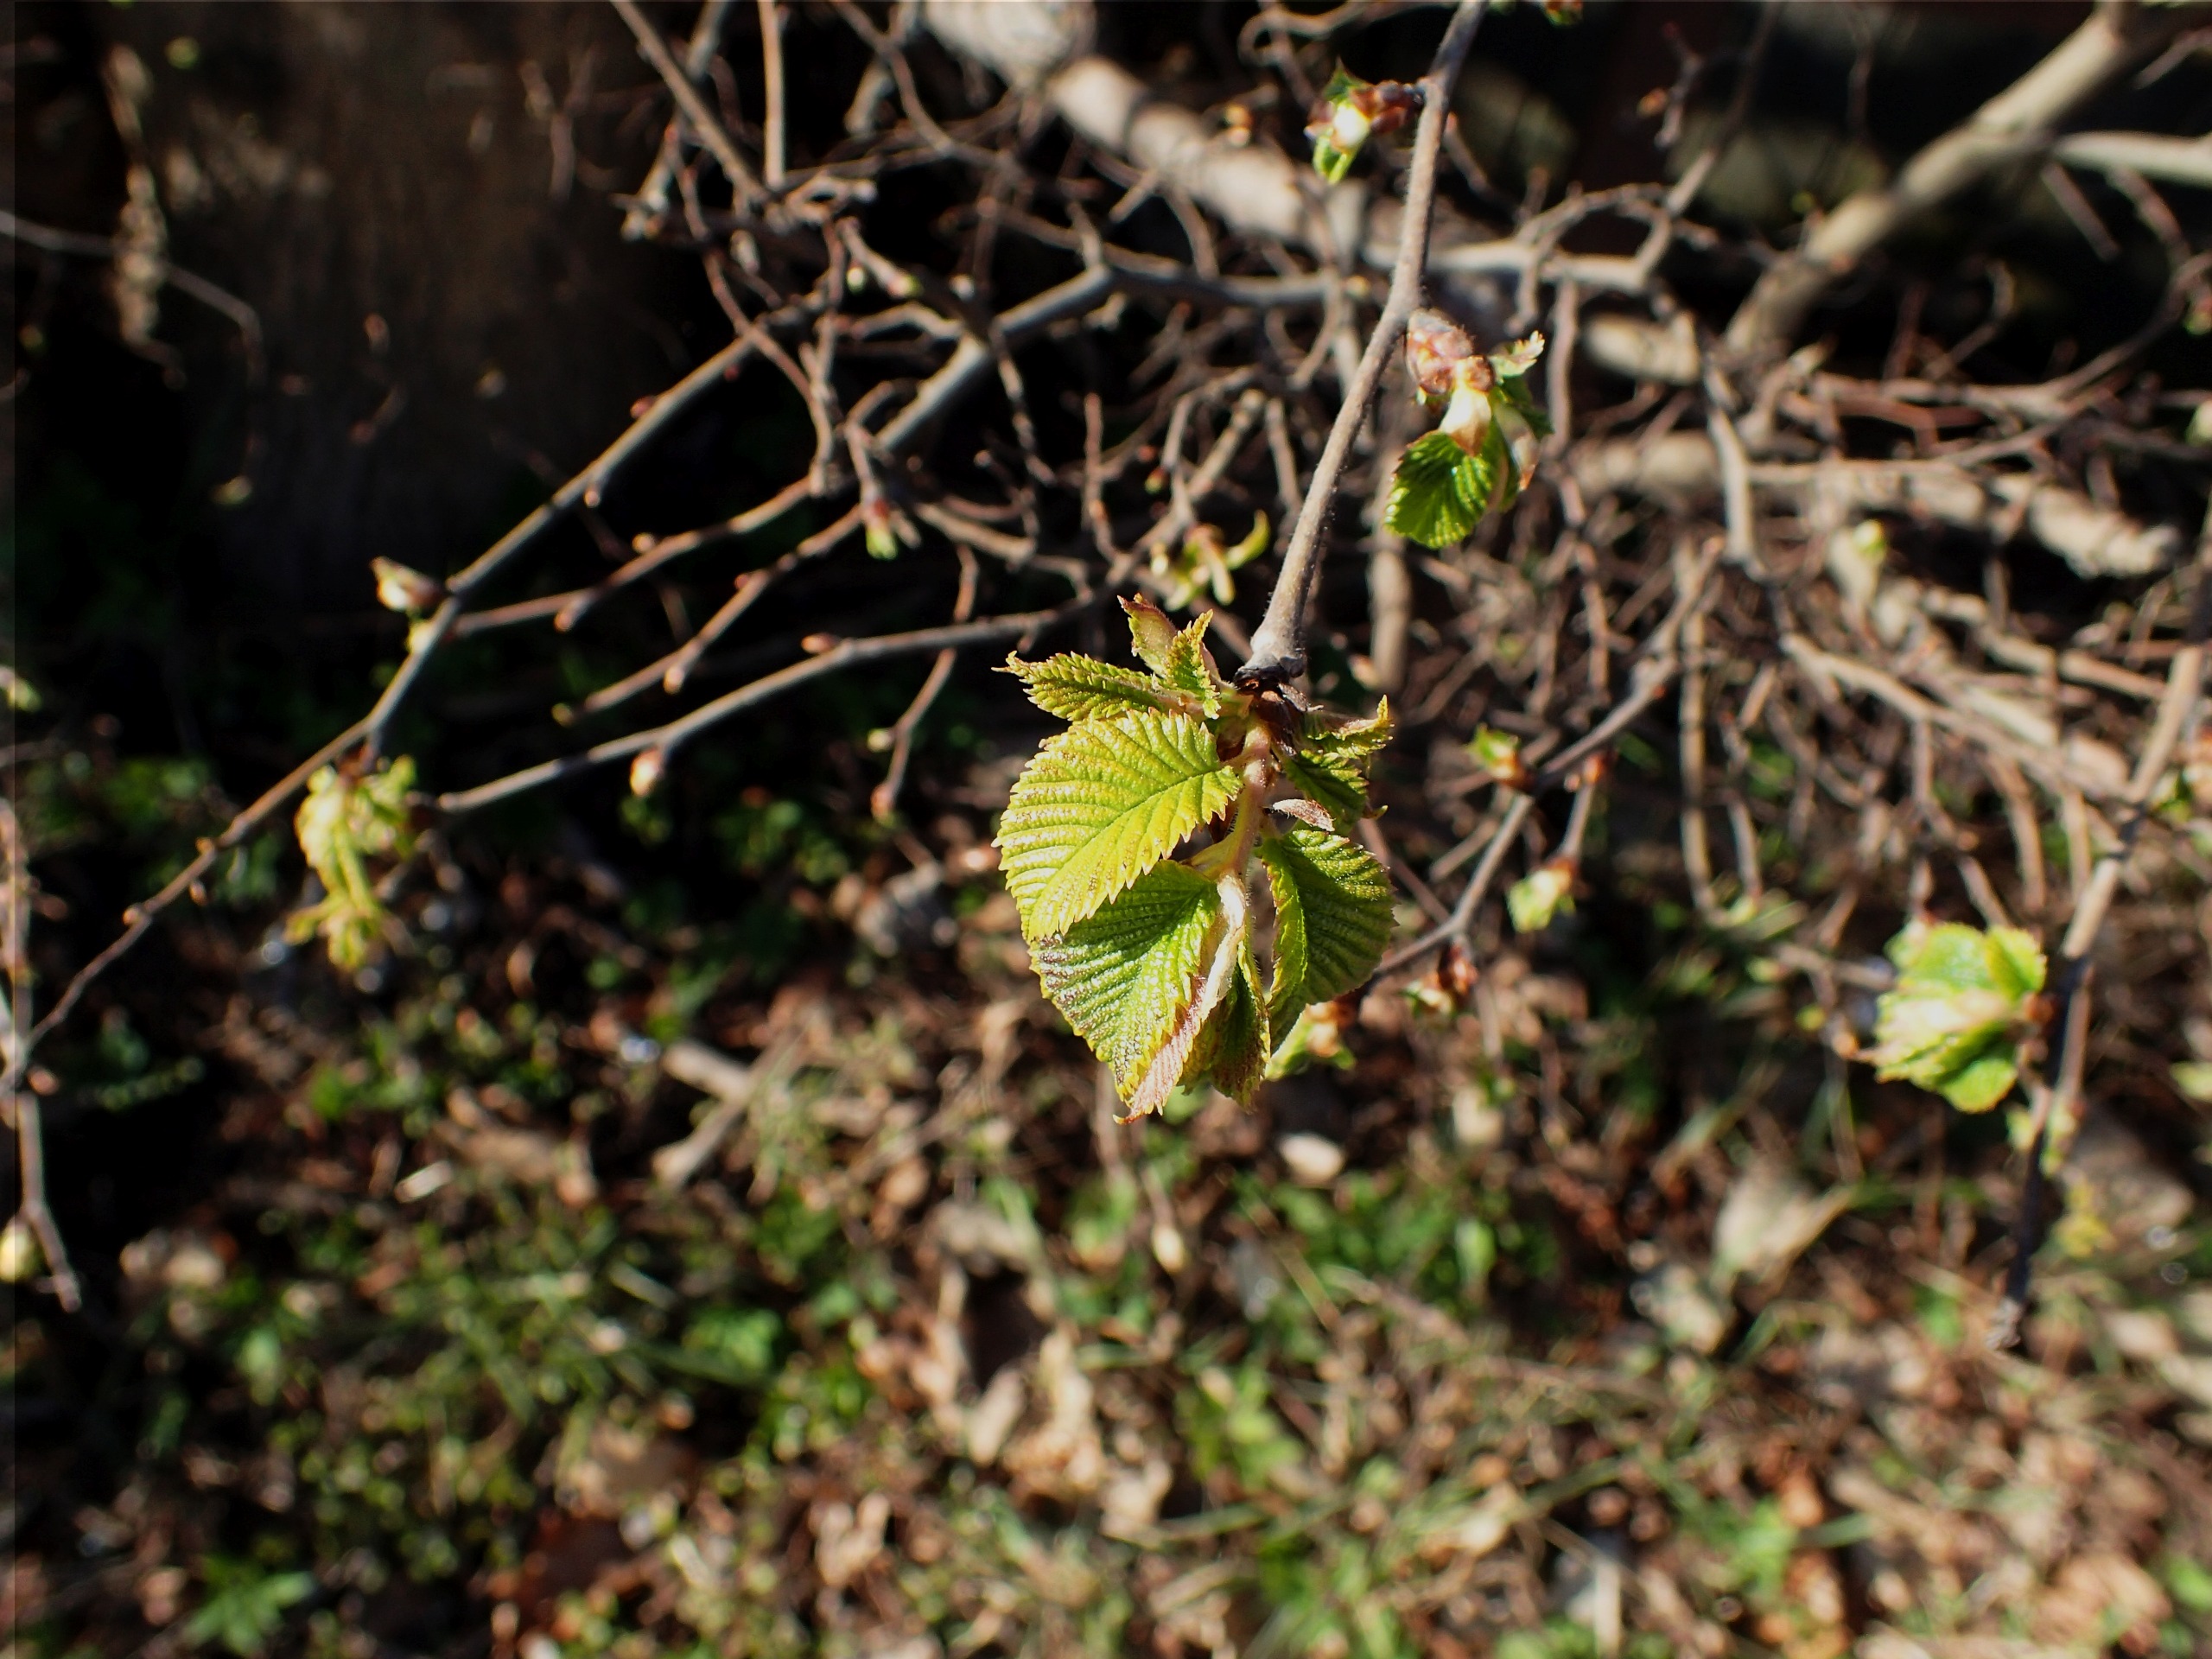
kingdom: Plantae
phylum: Tracheophyta
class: Magnoliopsida
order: Rosales
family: Ulmaceae
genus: Ulmus
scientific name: Ulmus glabra
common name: Skov-elm/storbladet elm
